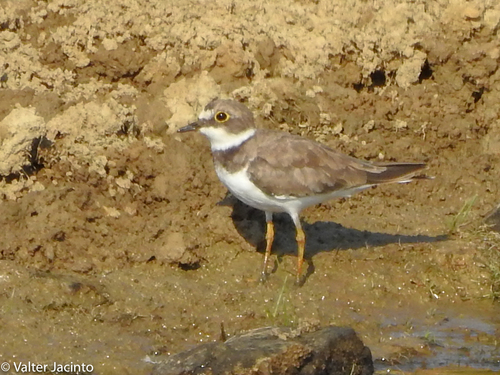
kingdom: Animalia
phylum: Chordata
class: Aves
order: Charadriiformes
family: Charadriidae
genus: Charadrius
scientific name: Charadrius dubius
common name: Little ringed plover
